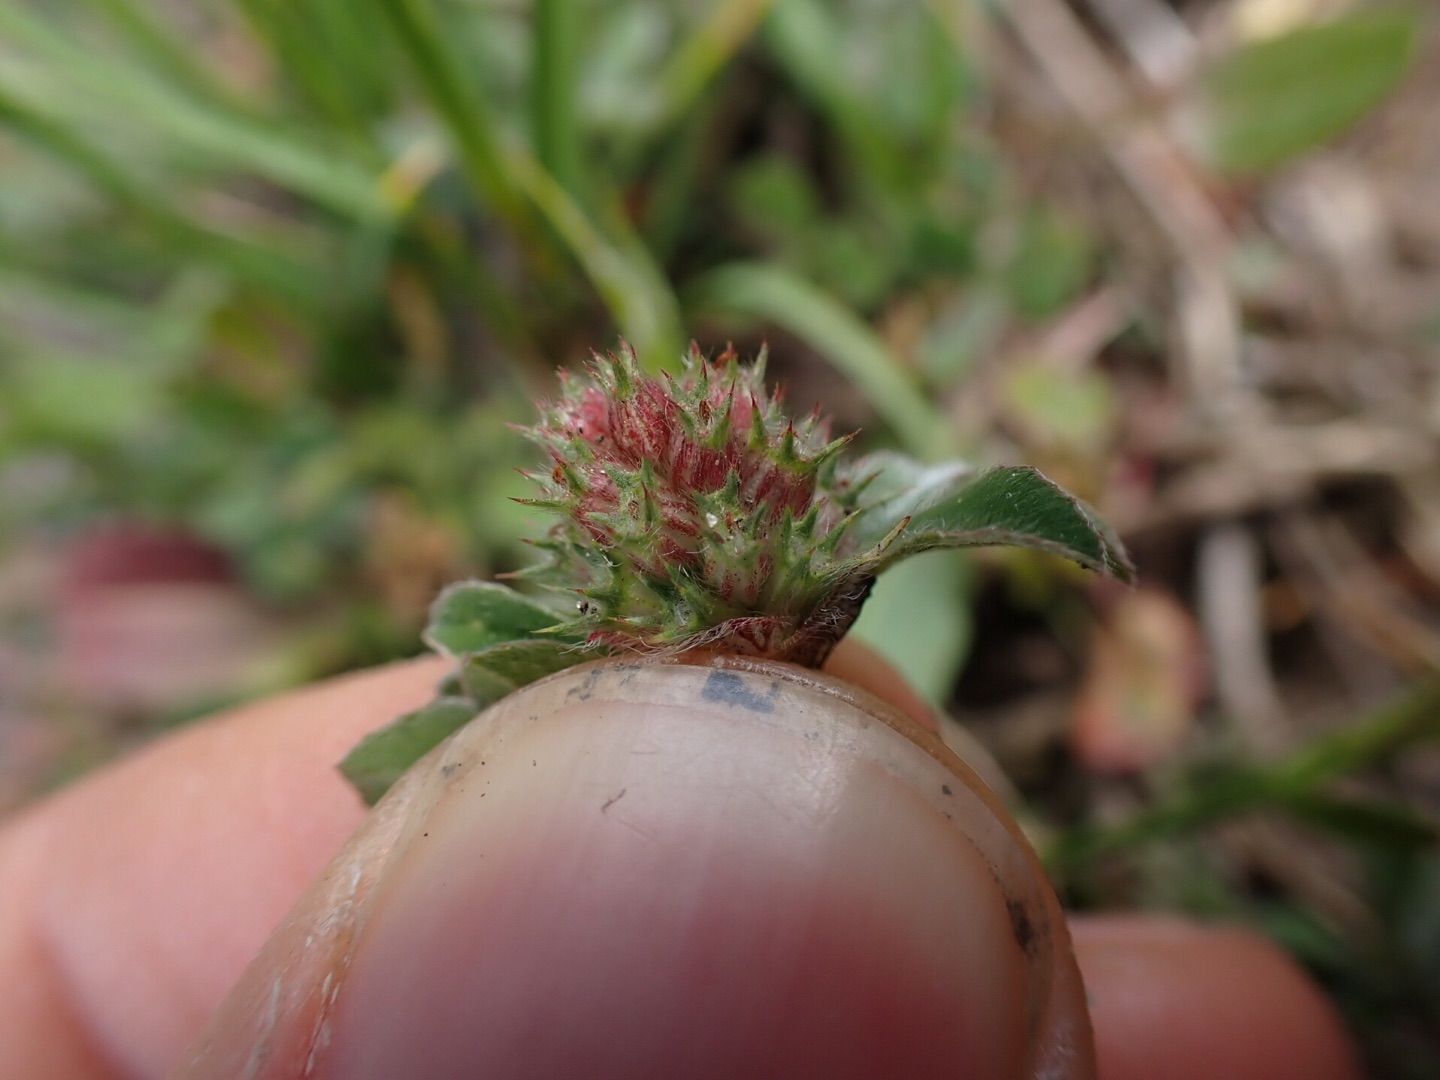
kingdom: Plantae
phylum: Tracheophyta
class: Magnoliopsida
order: Fabales
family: Fabaceae
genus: Trifolium
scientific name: Trifolium striatum
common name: Stribet kløver
